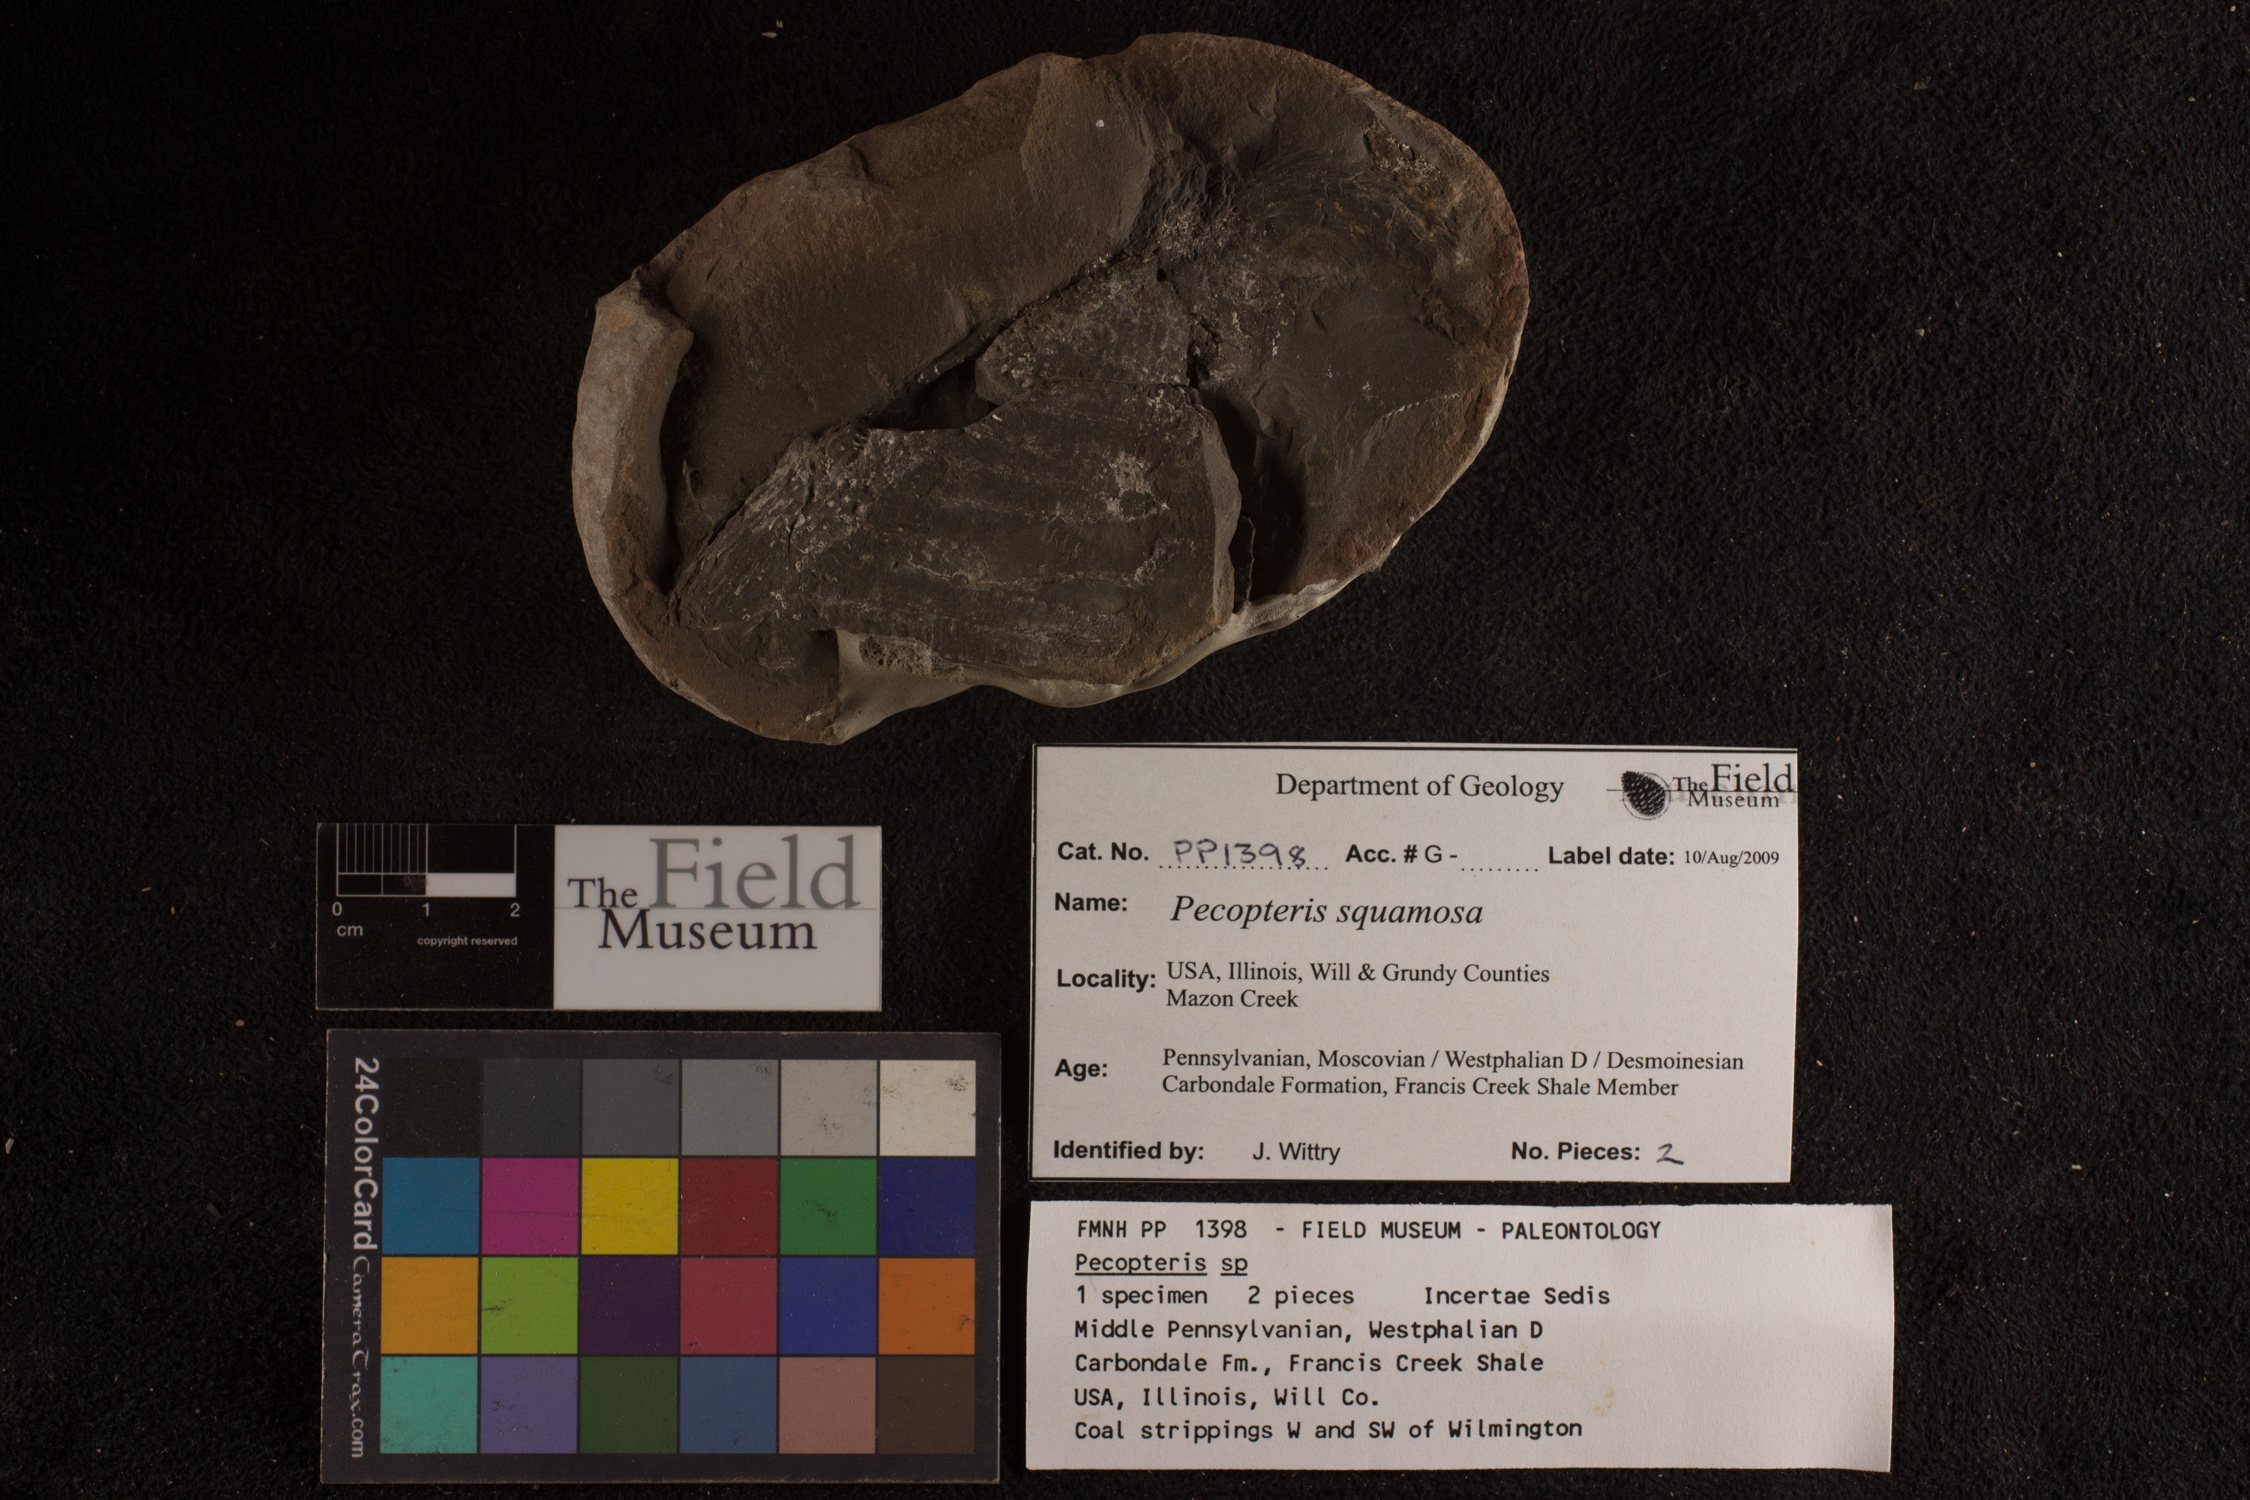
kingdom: Plantae
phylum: Tracheophyta
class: Polypodiopsida
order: Marattiales
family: Asterothecaceae
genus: Pecopteris
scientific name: Pecopteris
